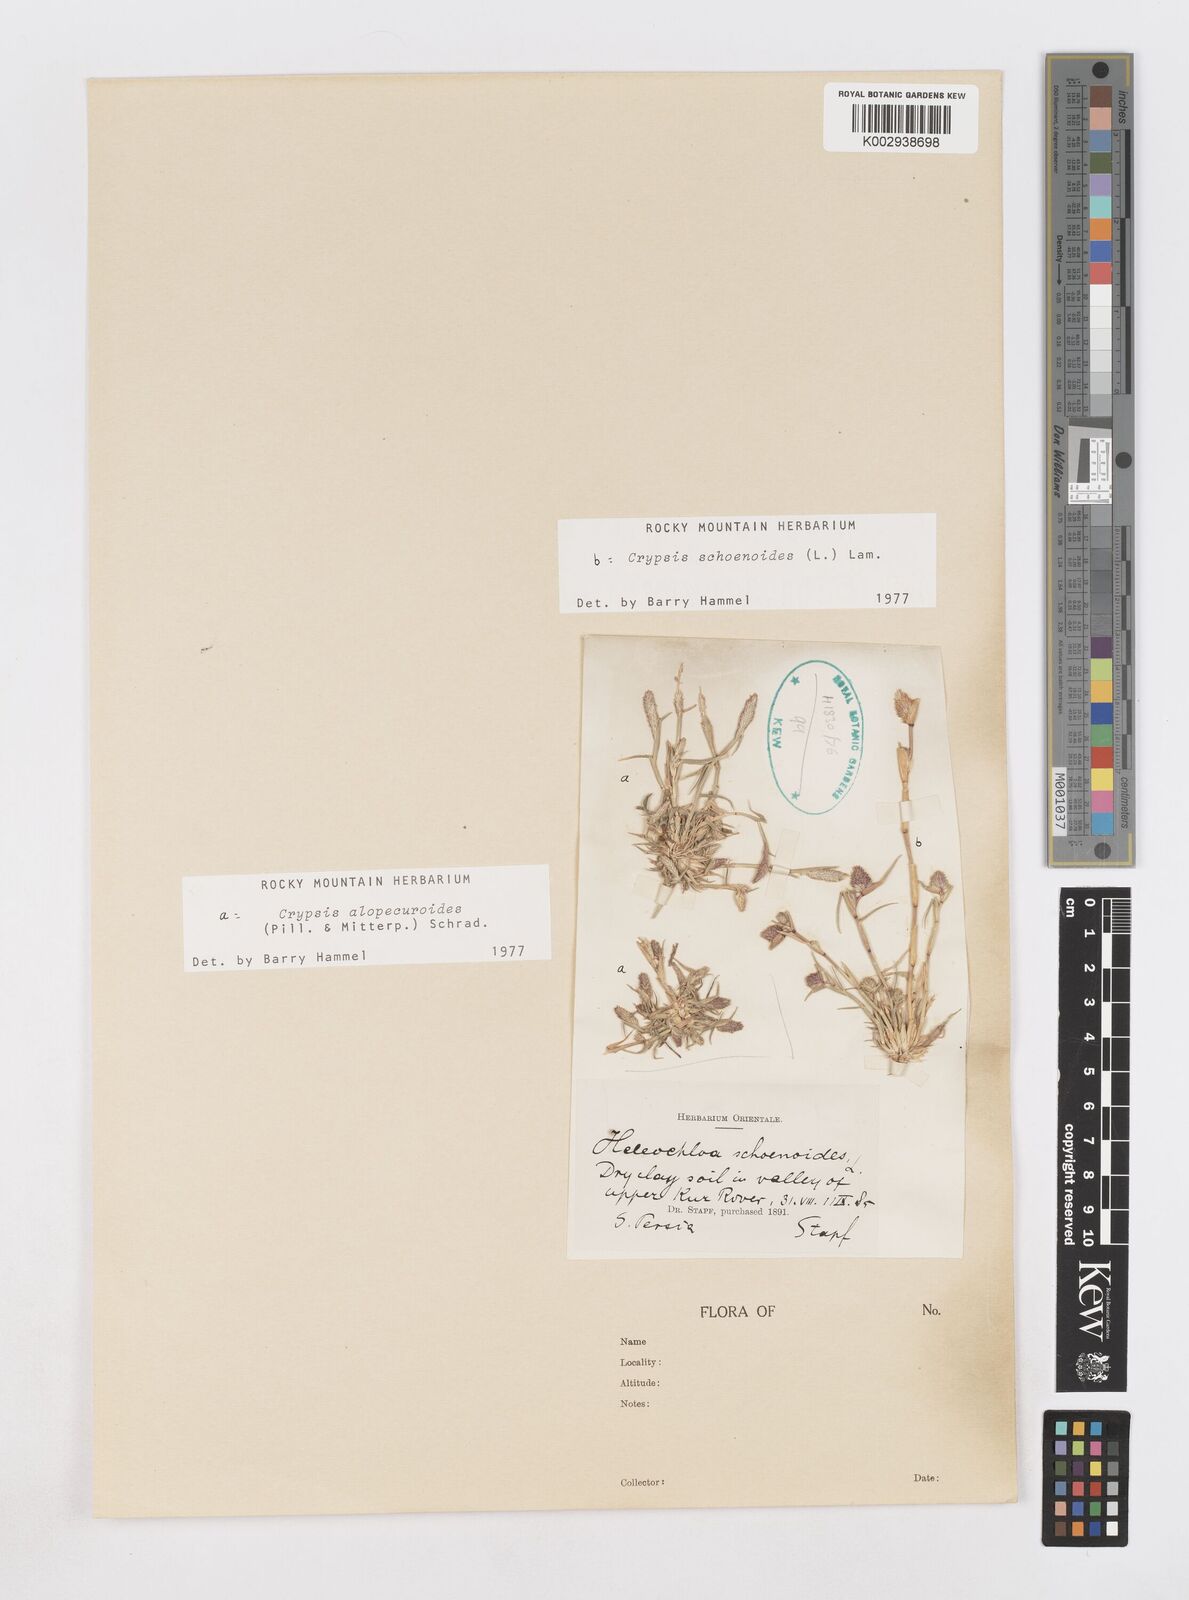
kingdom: Plantae
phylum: Tracheophyta
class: Liliopsida
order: Poales
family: Poaceae
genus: Sporobolus
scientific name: Sporobolus alopecuroides
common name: Foxtail pricklegrass
